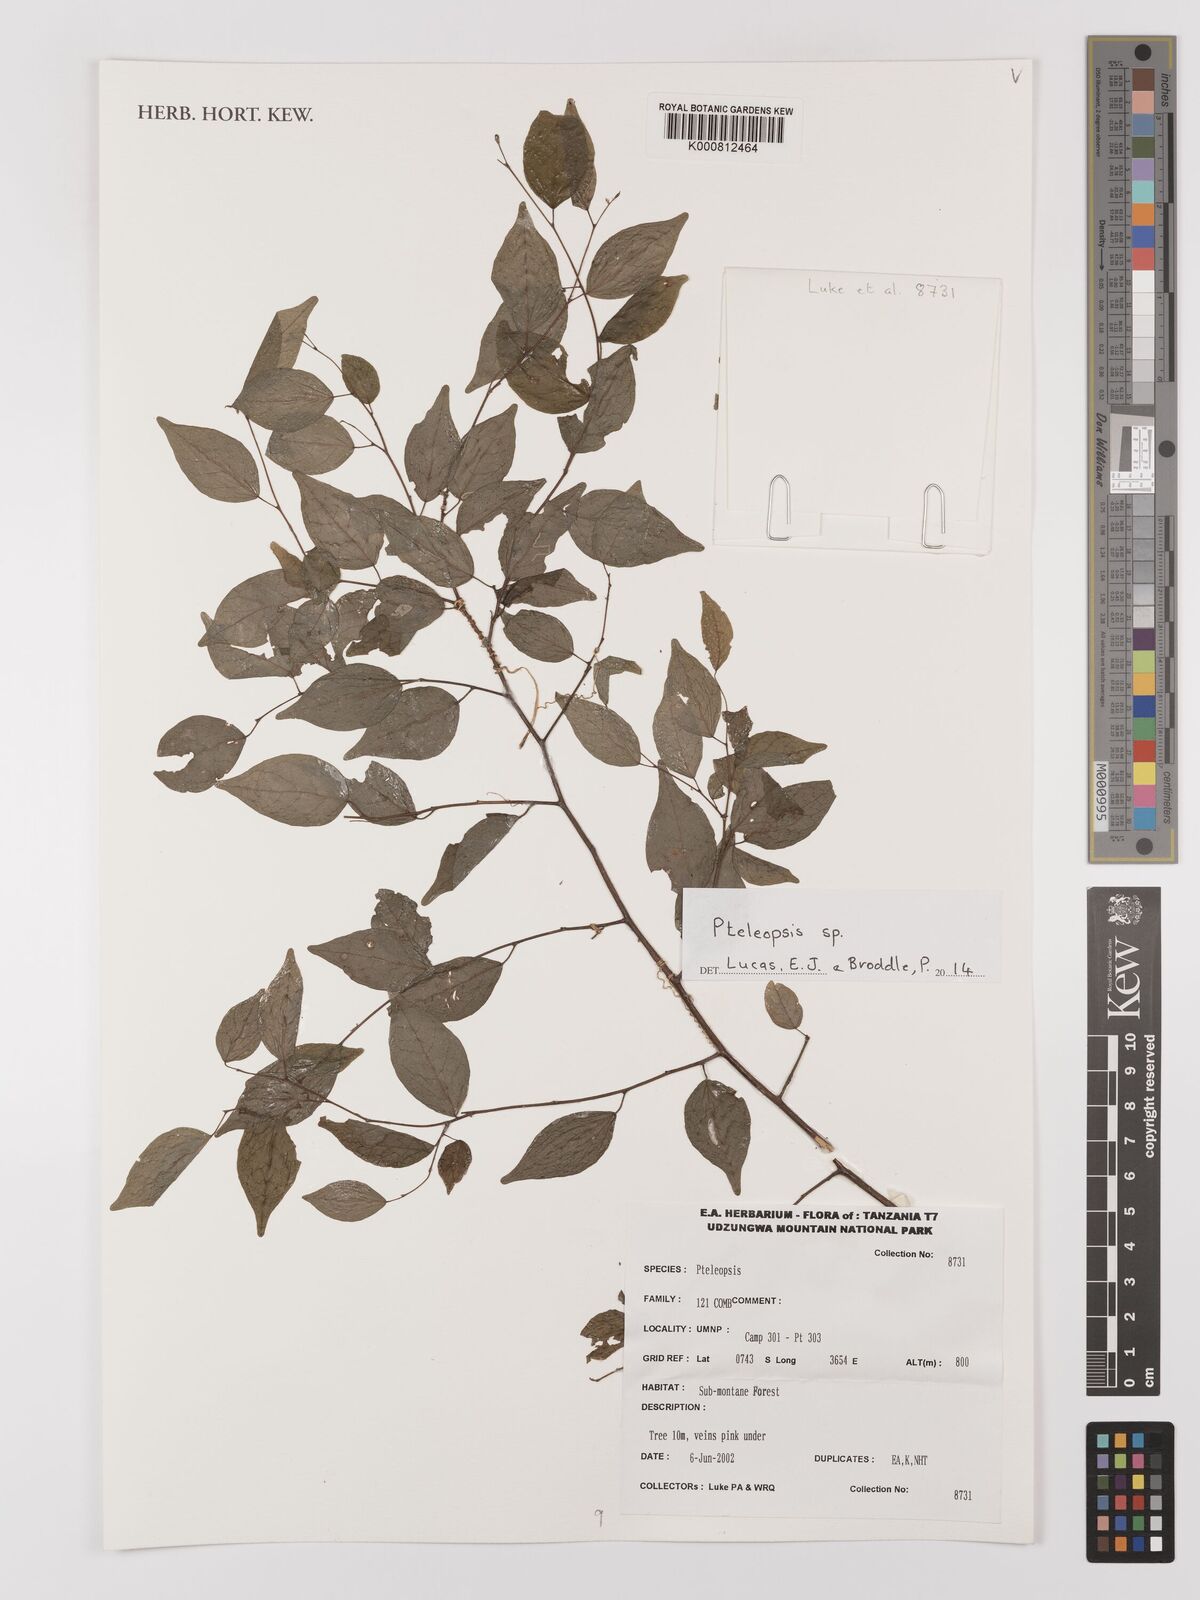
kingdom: Plantae
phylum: Tracheophyta
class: Magnoliopsida
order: Myrtales
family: Combretaceae
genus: Terminalia
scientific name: Terminalia
